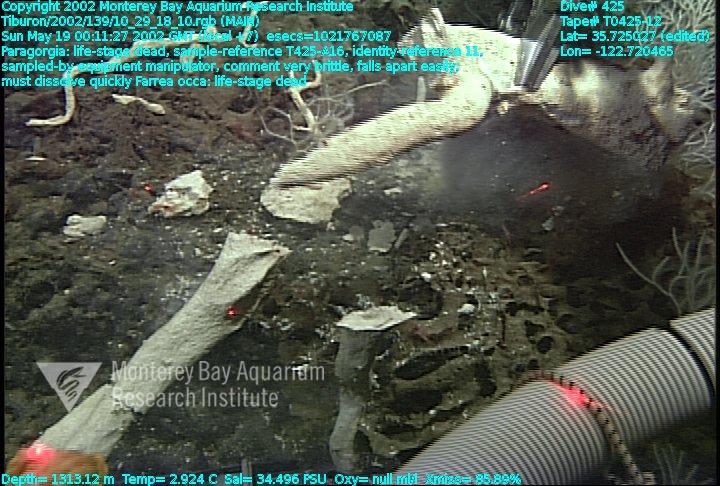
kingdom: Animalia
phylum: Porifera
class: Hexactinellida
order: Sceptrulophora
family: Farreidae
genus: Farrea
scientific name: Farrea occa
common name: Reversed glass sponge
